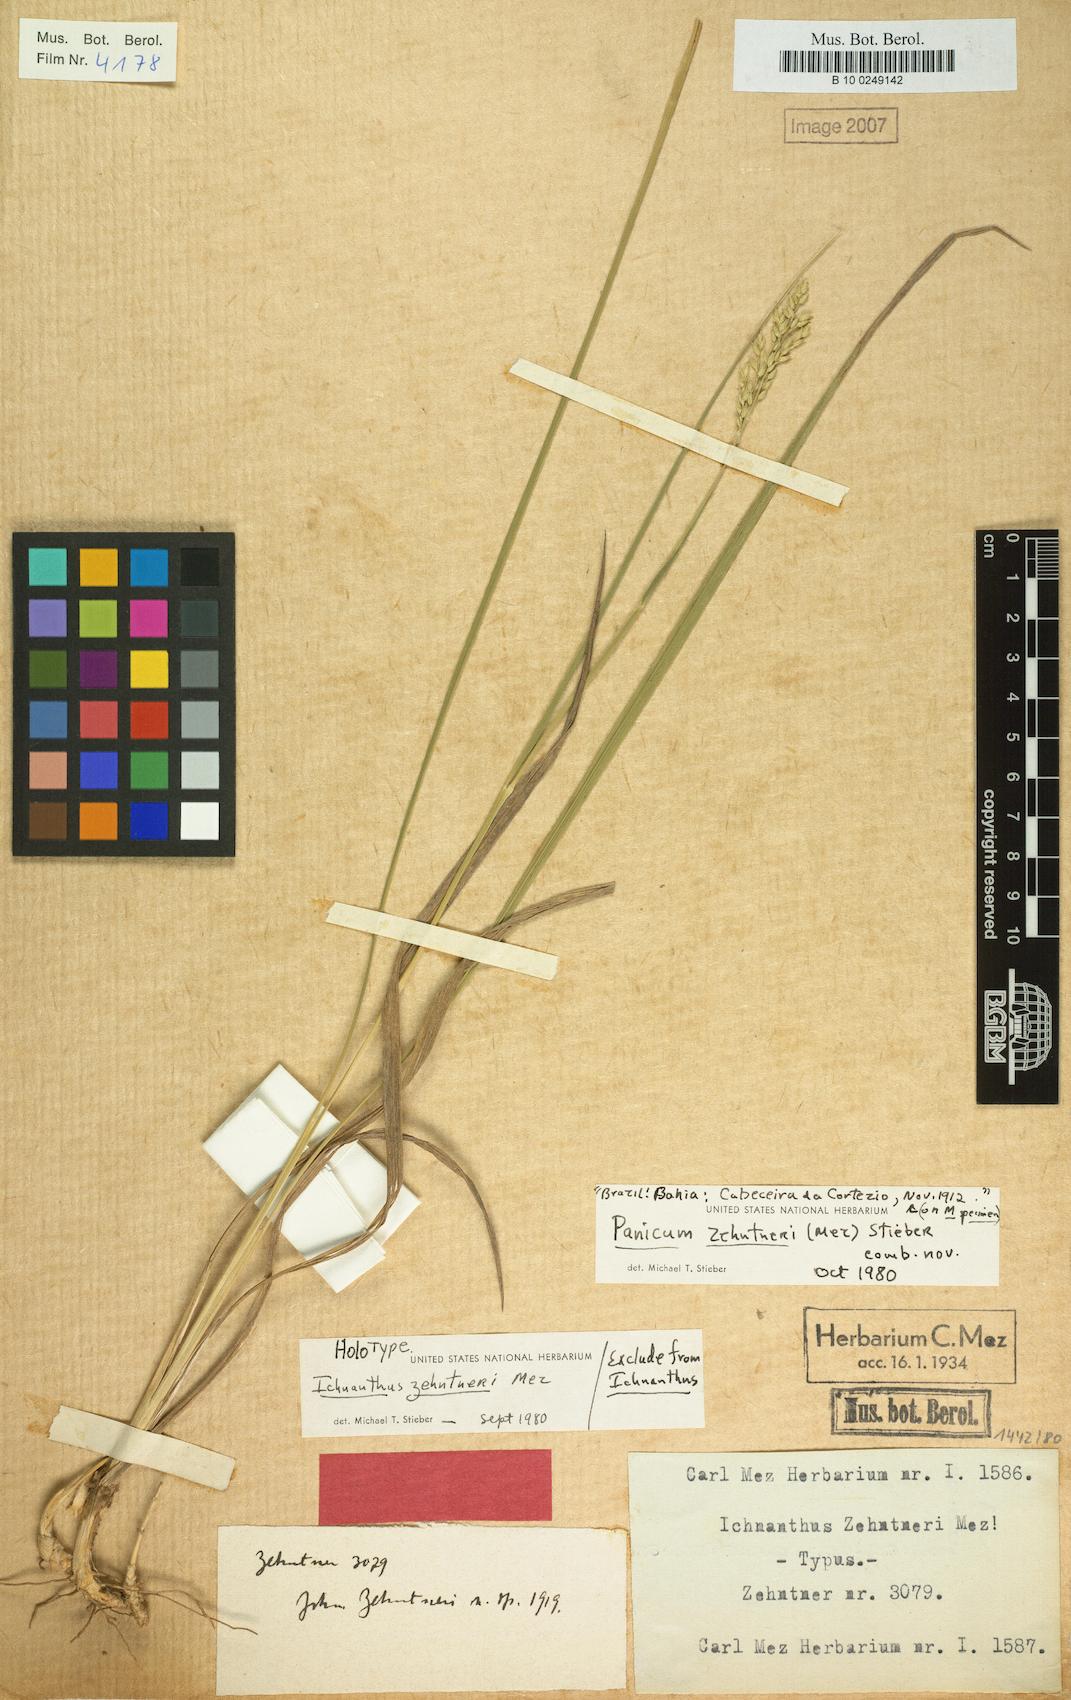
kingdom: Plantae
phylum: Tracheophyta
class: Liliopsida
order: Poales
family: Poaceae
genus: Ichnanthus
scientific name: Ichnanthus zehntneri
